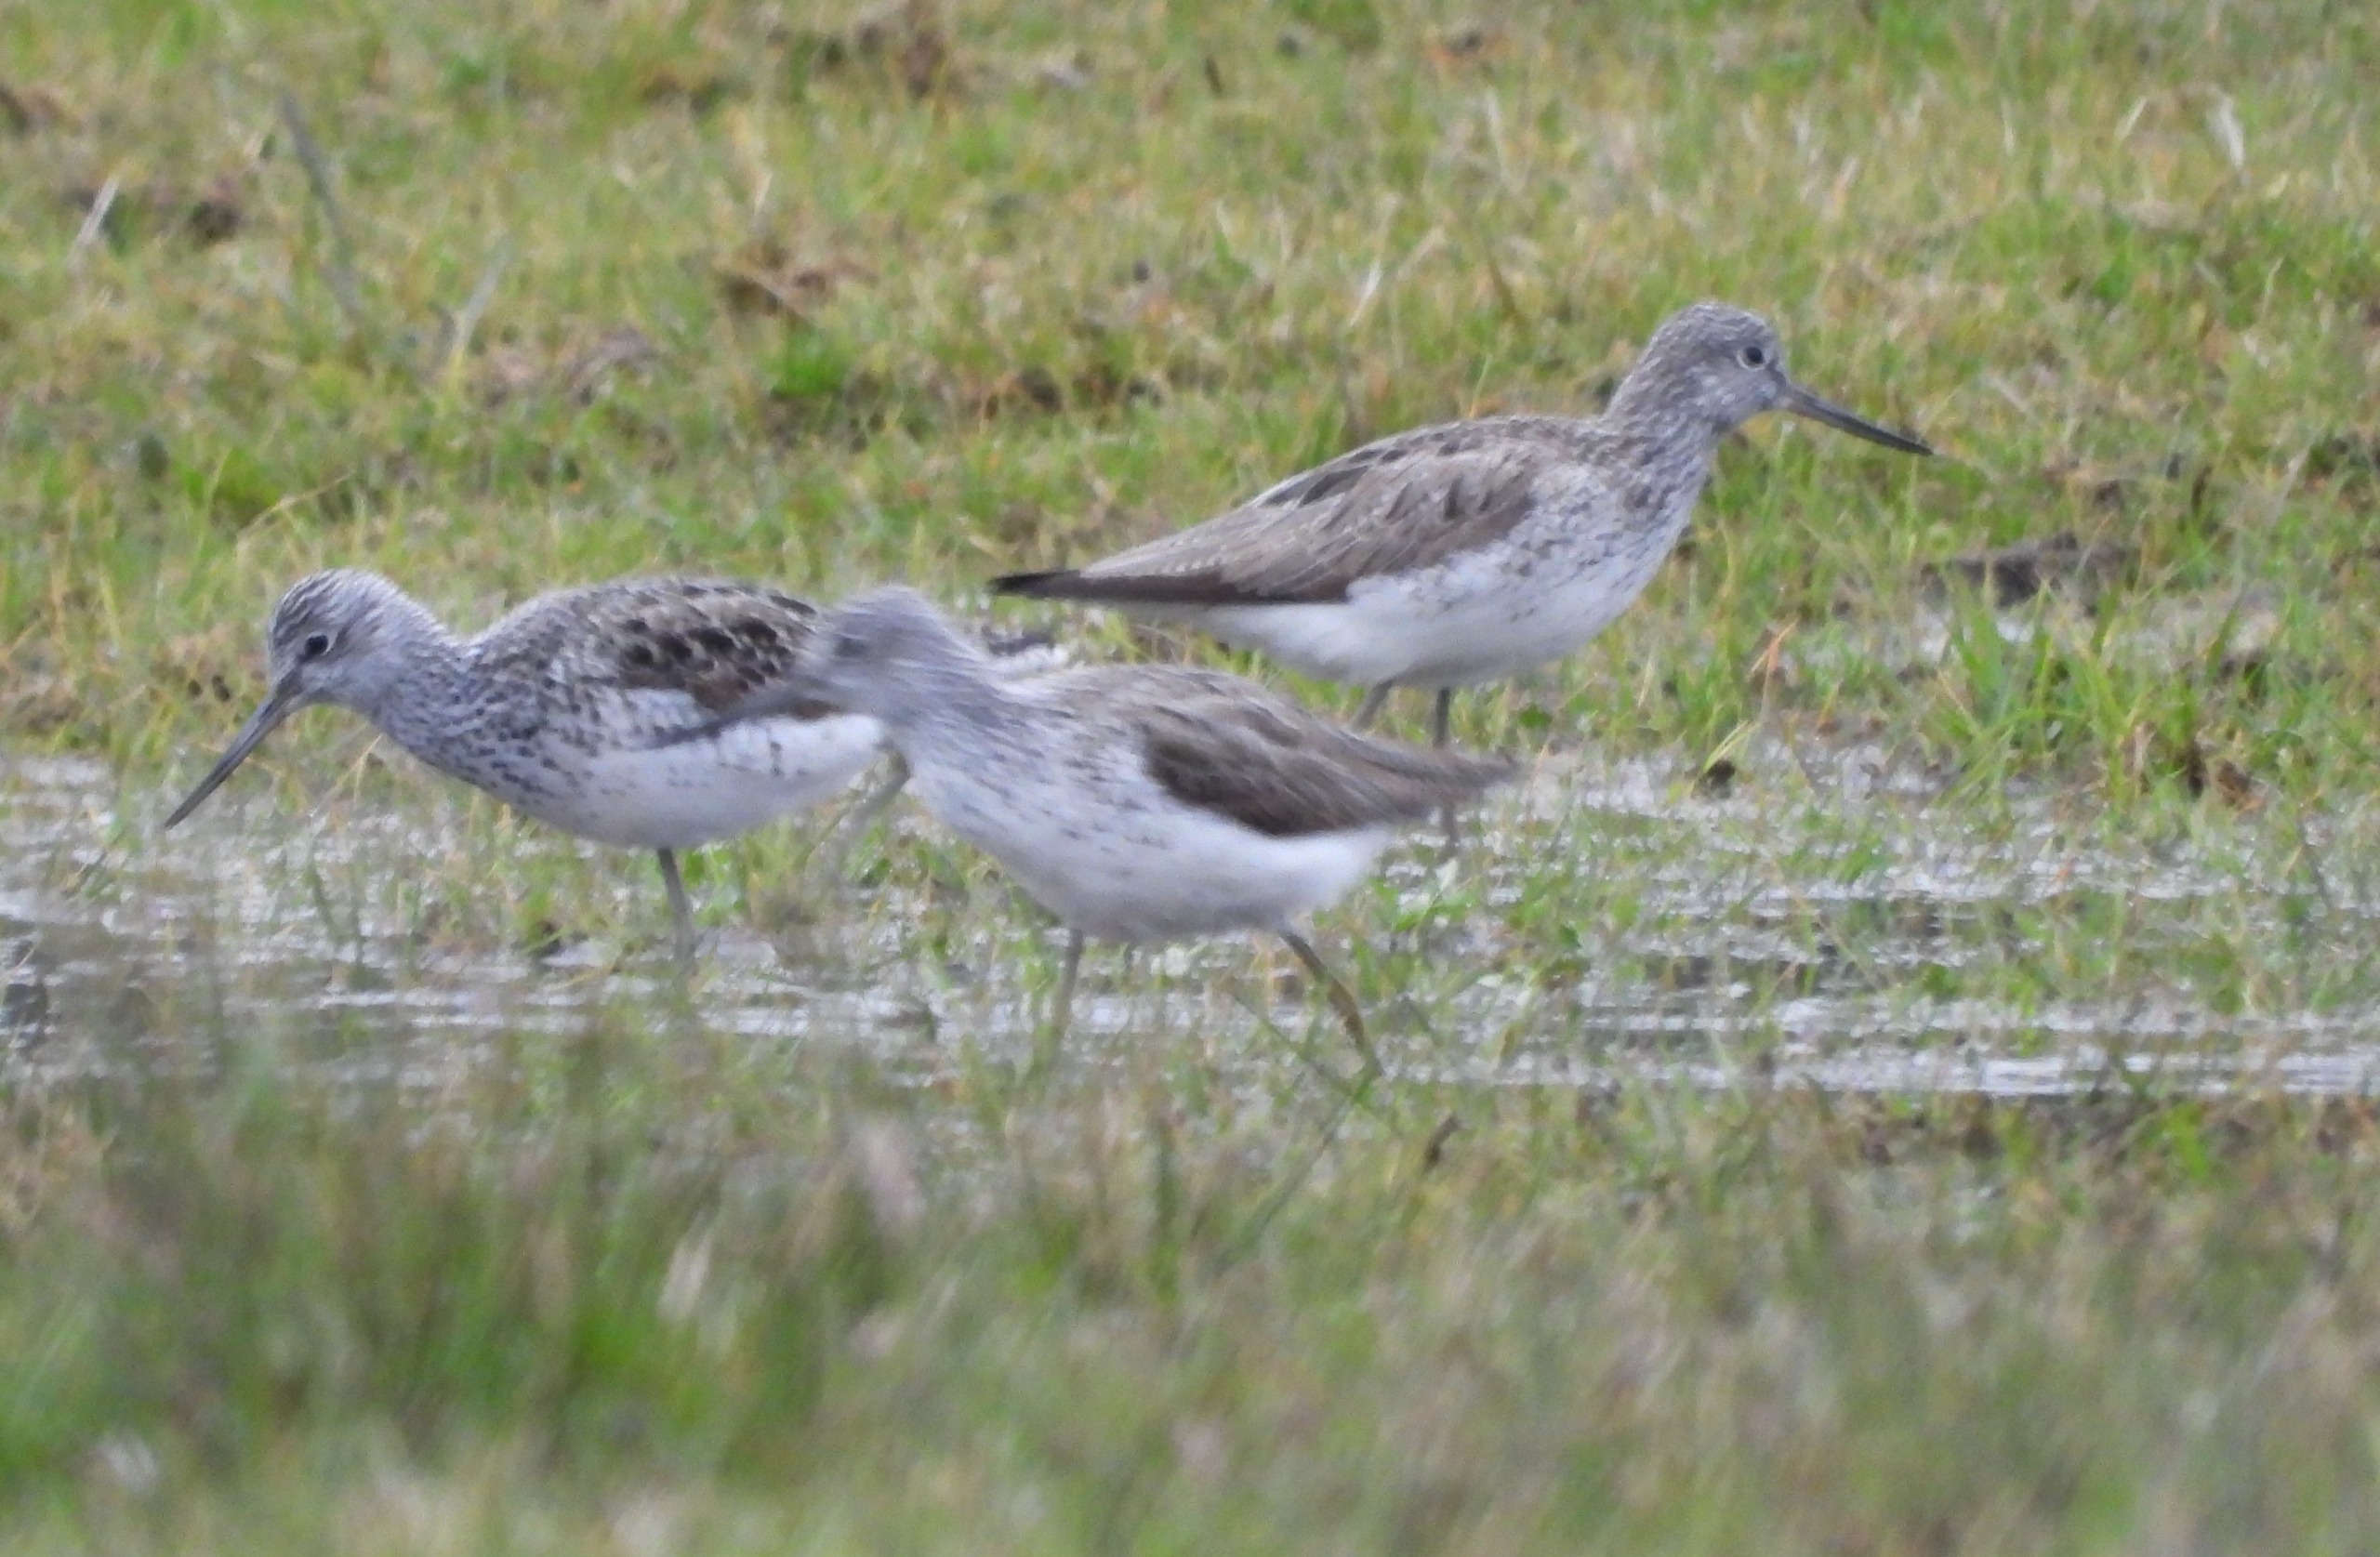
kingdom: Animalia
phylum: Chordata
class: Aves
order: Charadriiformes
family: Scolopacidae
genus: Tringa
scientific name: Tringa nebularia
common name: Hvidklire
